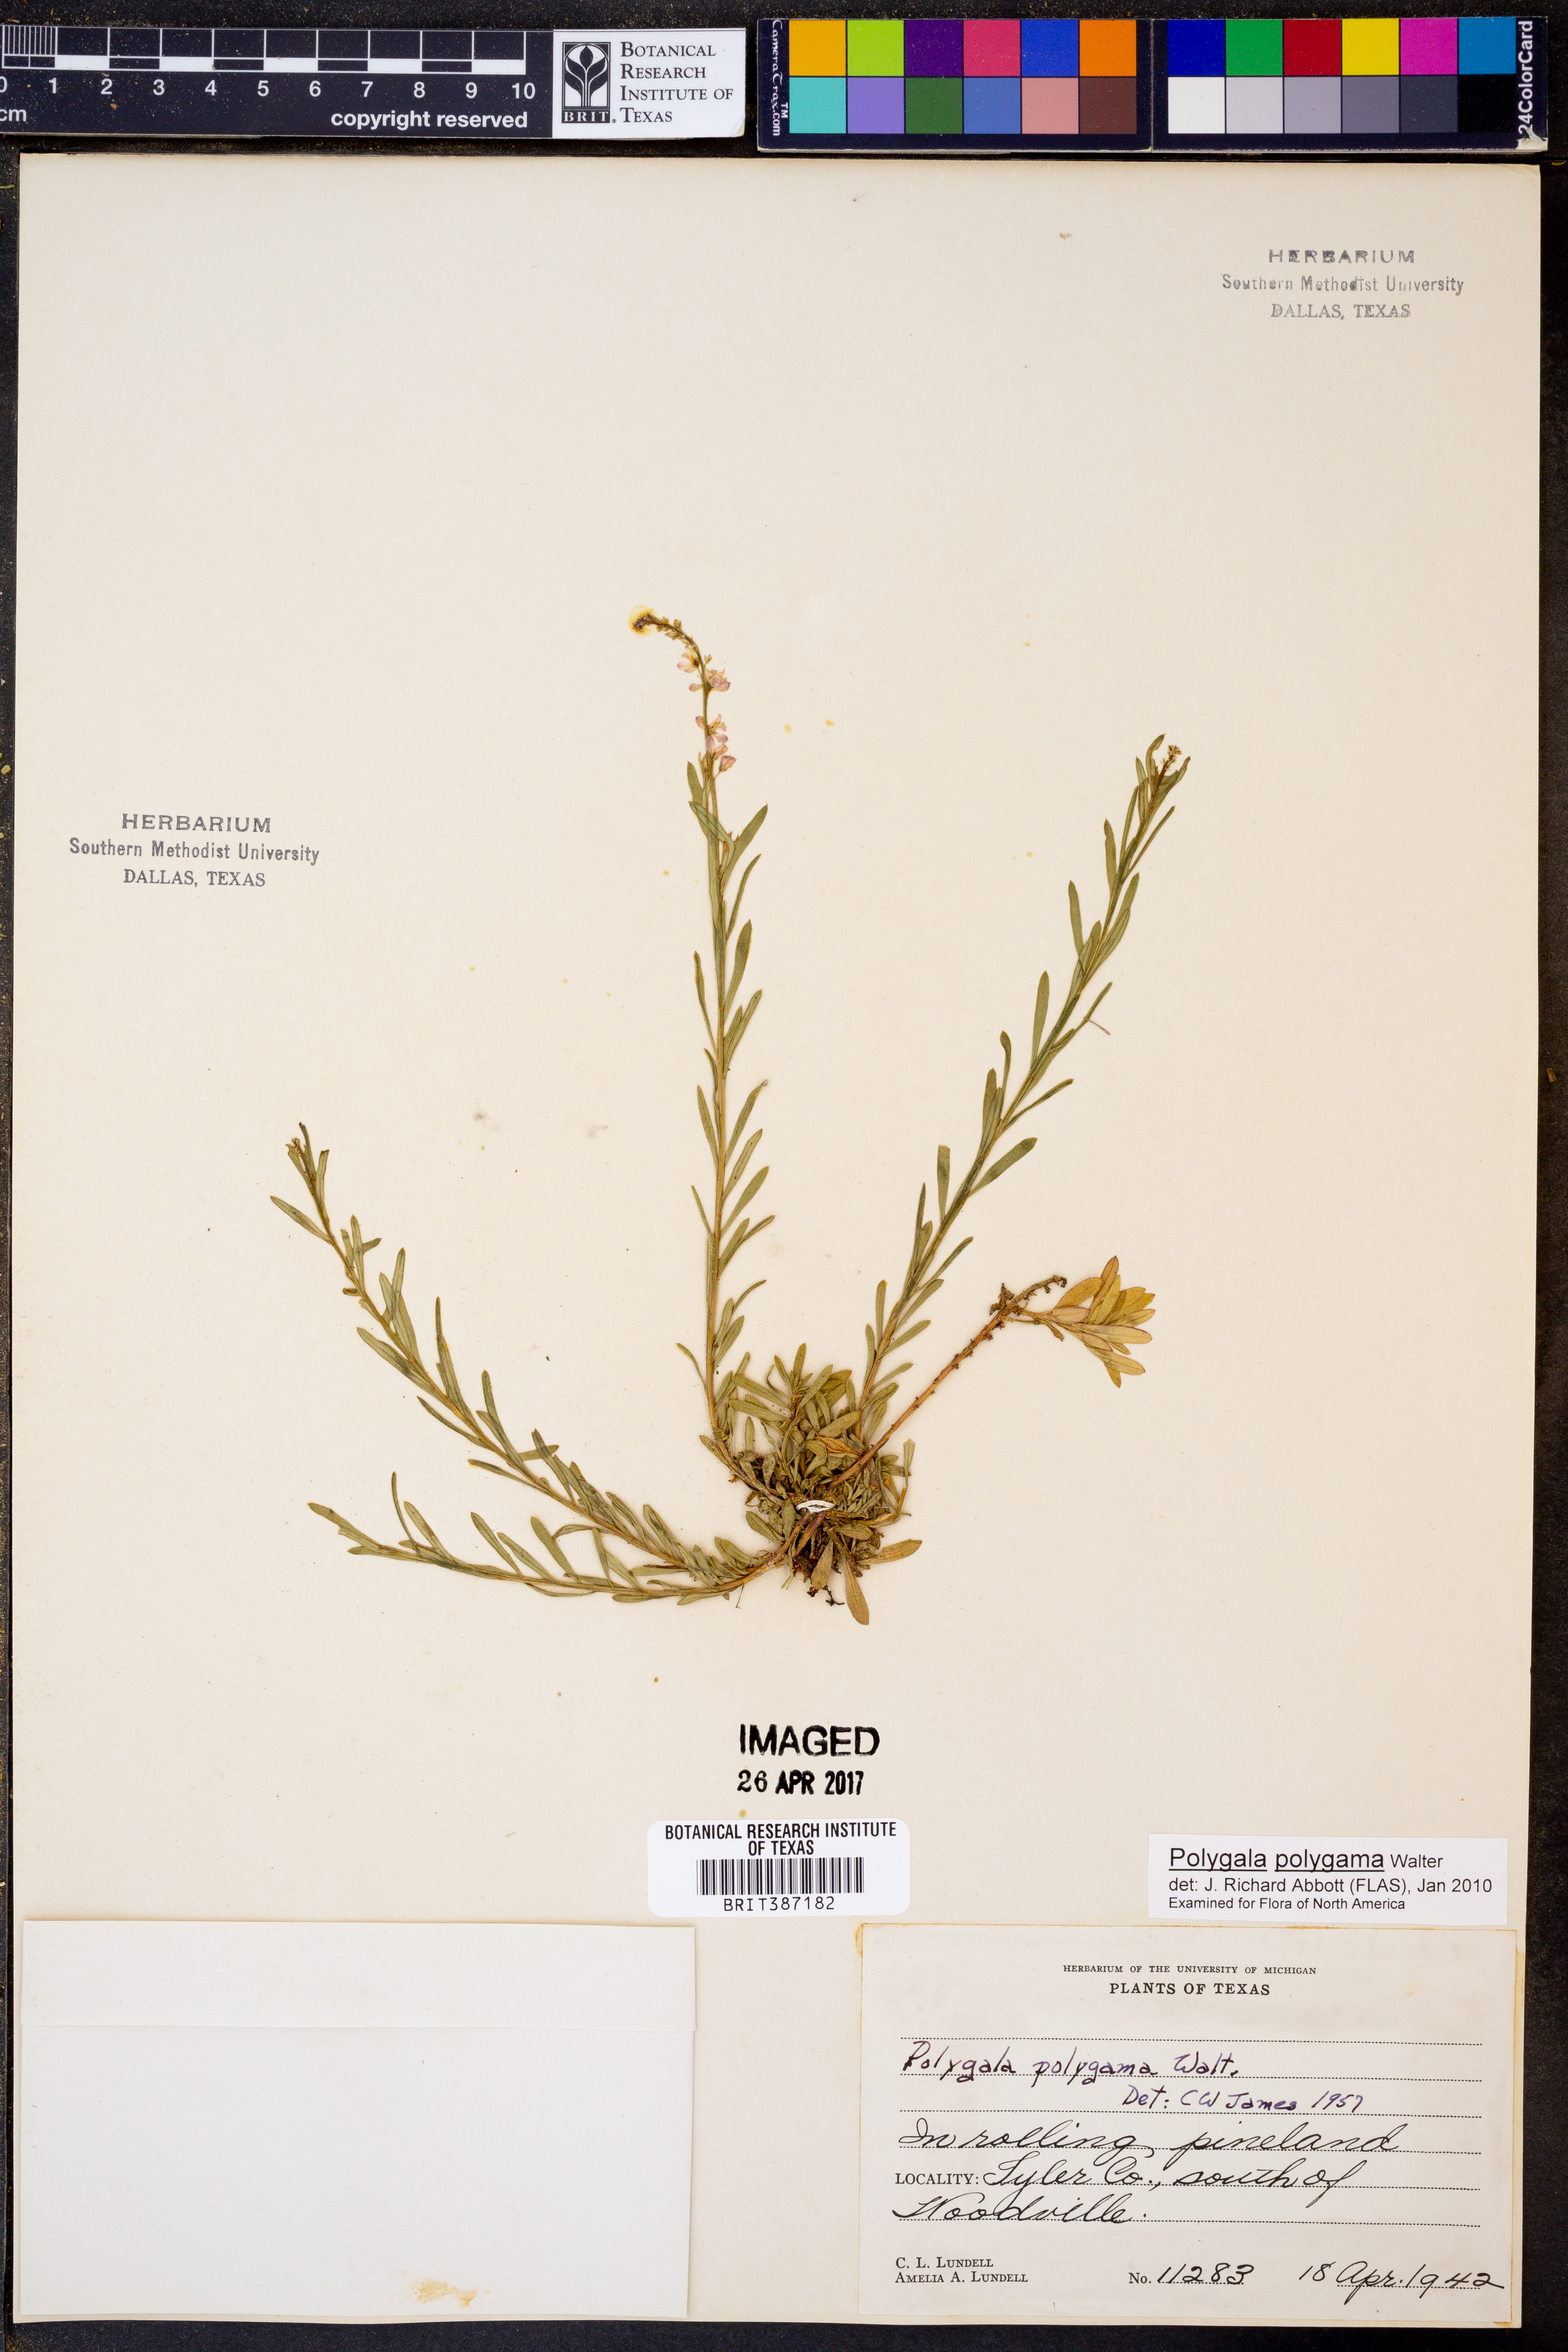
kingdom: Plantae
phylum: Tracheophyta
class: Magnoliopsida
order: Fabales
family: Polygalaceae
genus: Polygala
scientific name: Polygala polygama
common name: Bitter milkwort
